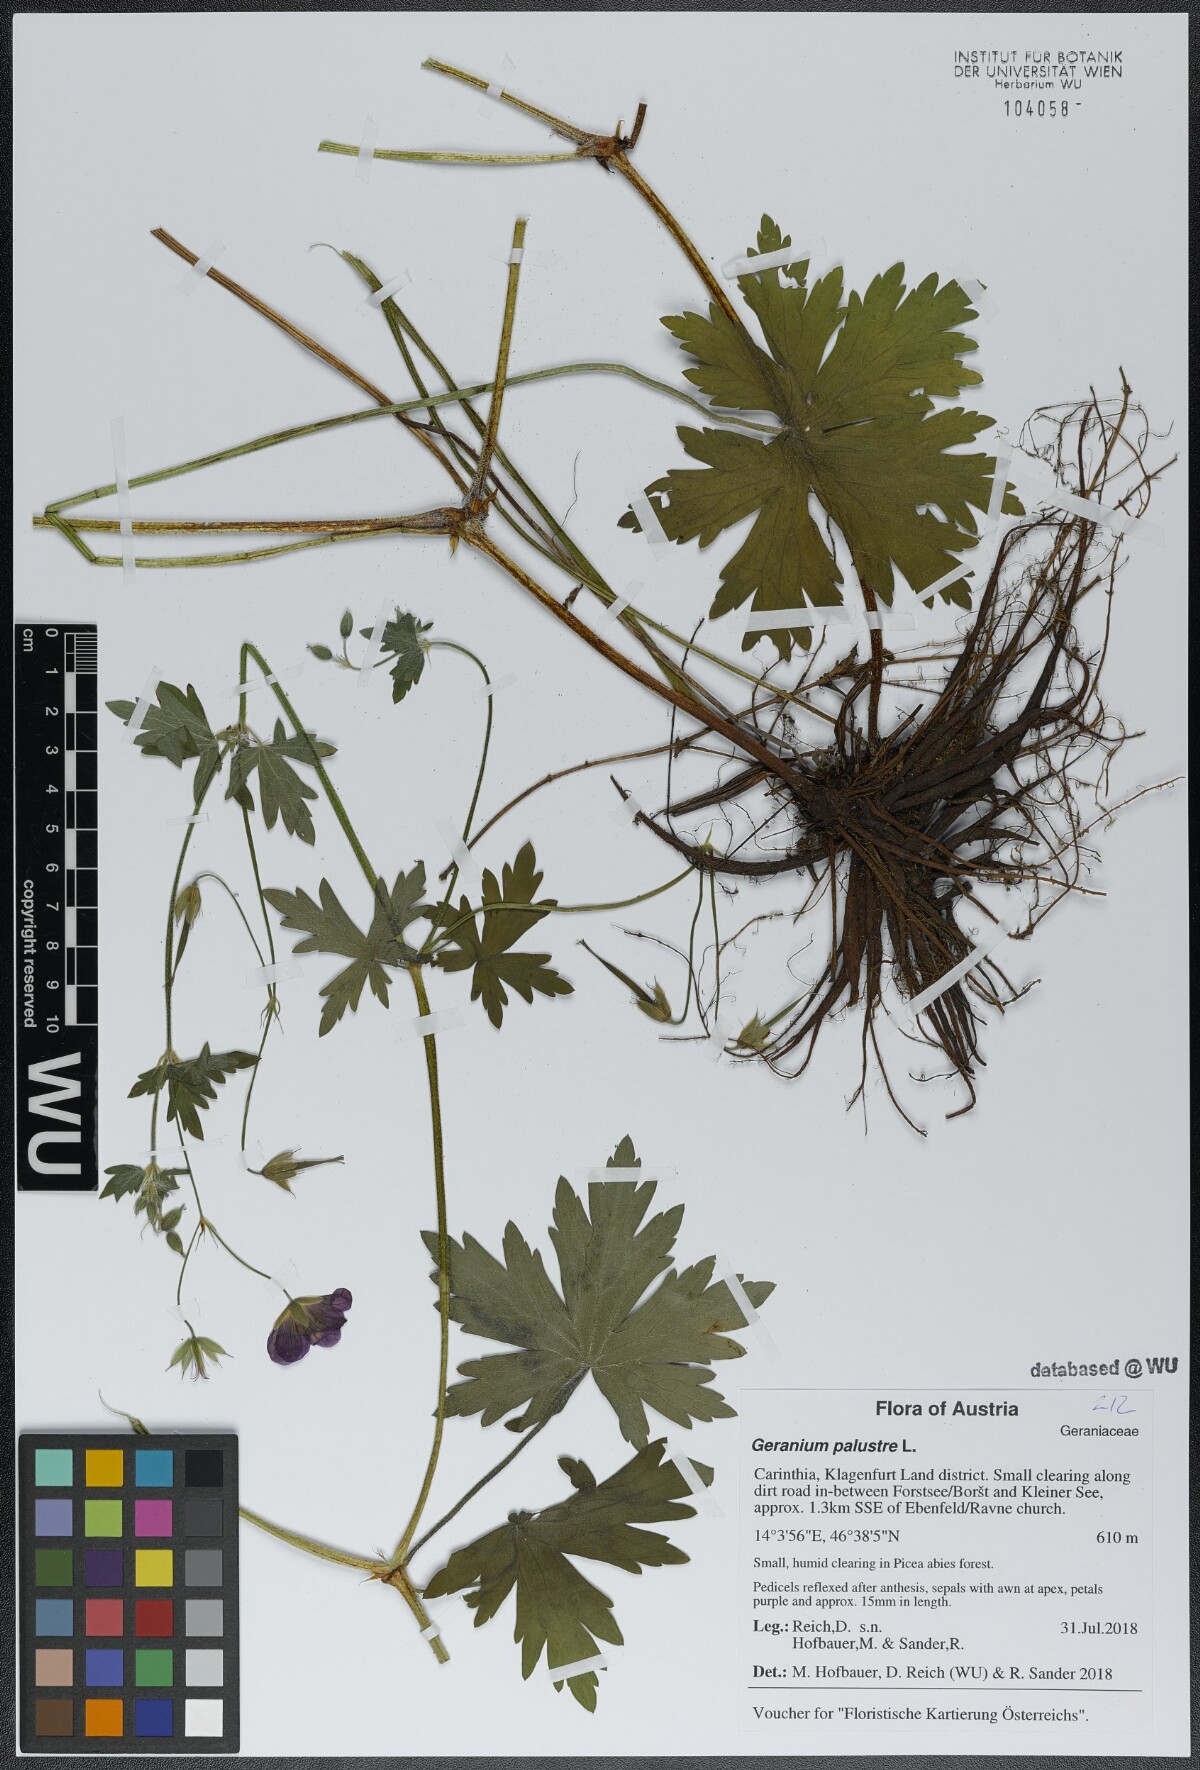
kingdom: Plantae
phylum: Tracheophyta
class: Magnoliopsida
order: Geraniales
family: Geraniaceae
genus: Geranium
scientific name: Geranium palustre
